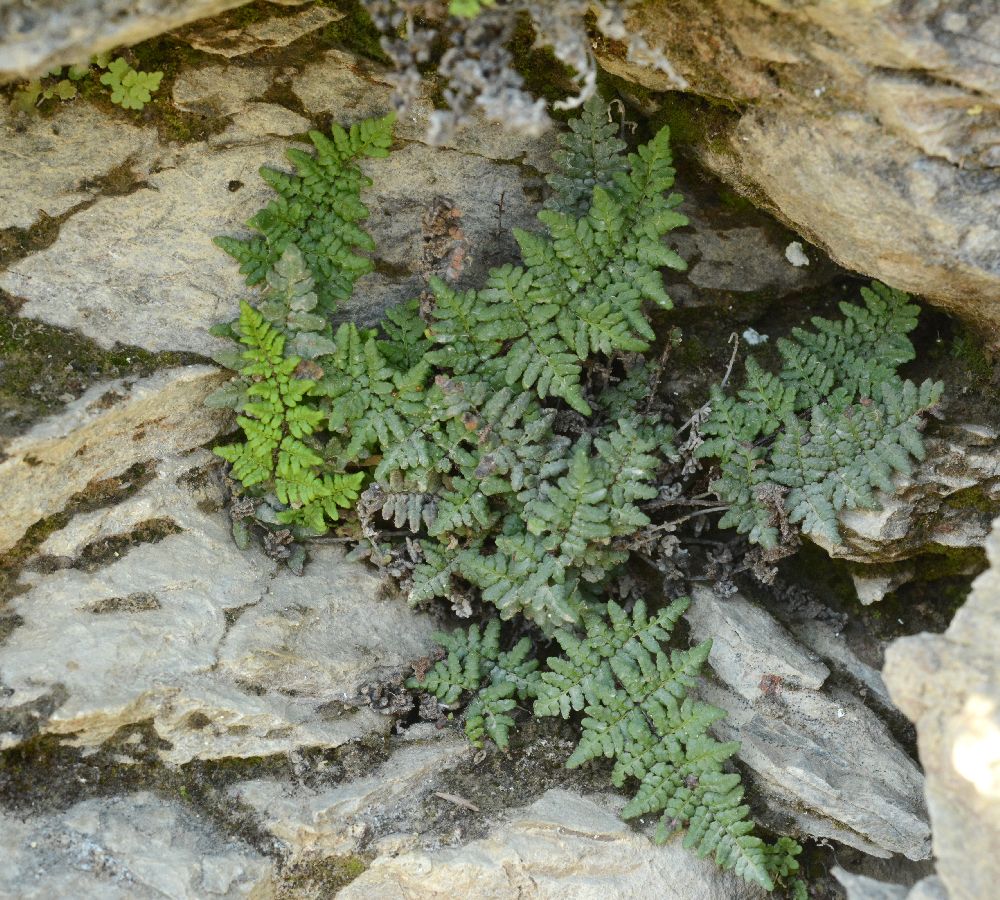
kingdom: Plantae
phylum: Tracheophyta
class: Polypodiopsida
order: Polypodiales
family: Pteridaceae
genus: Oeosporangium
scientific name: Oeosporangium pteridioides
